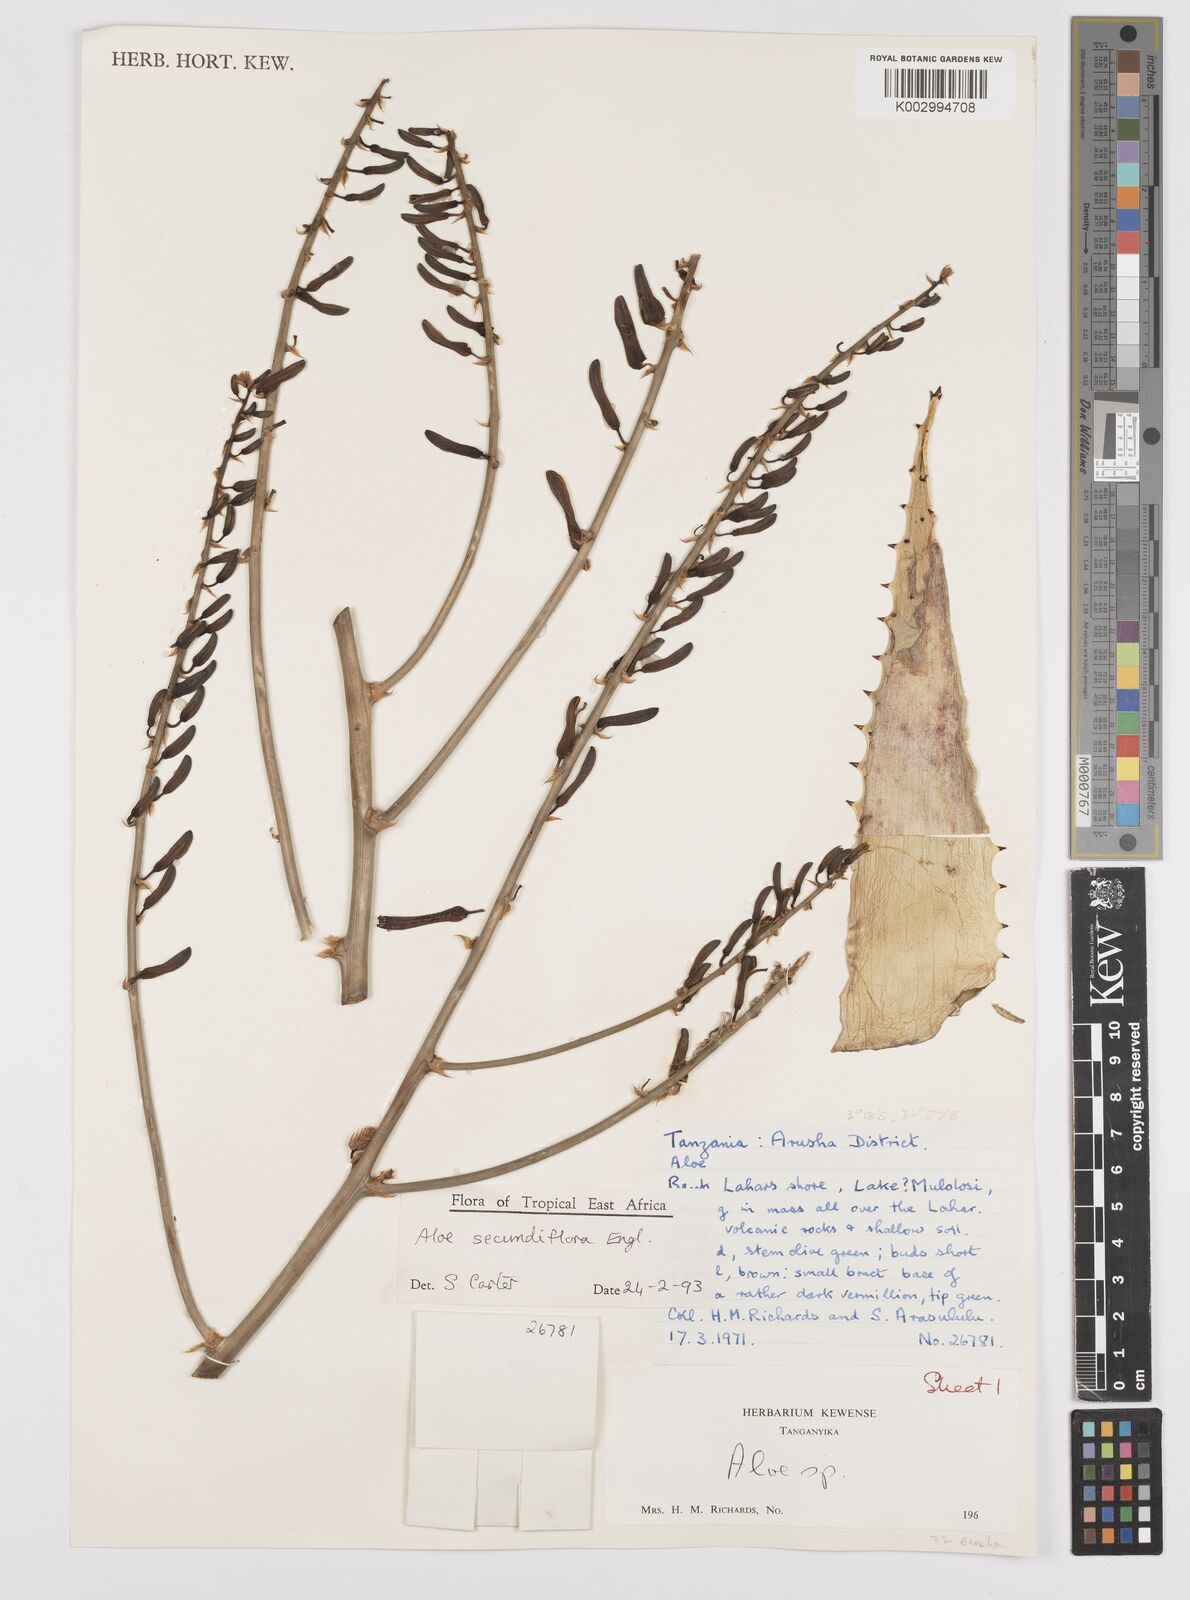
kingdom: Plantae
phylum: Tracheophyta
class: Liliopsida
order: Asparagales
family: Asphodelaceae
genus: Aloe
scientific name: Aloe secundiflora
